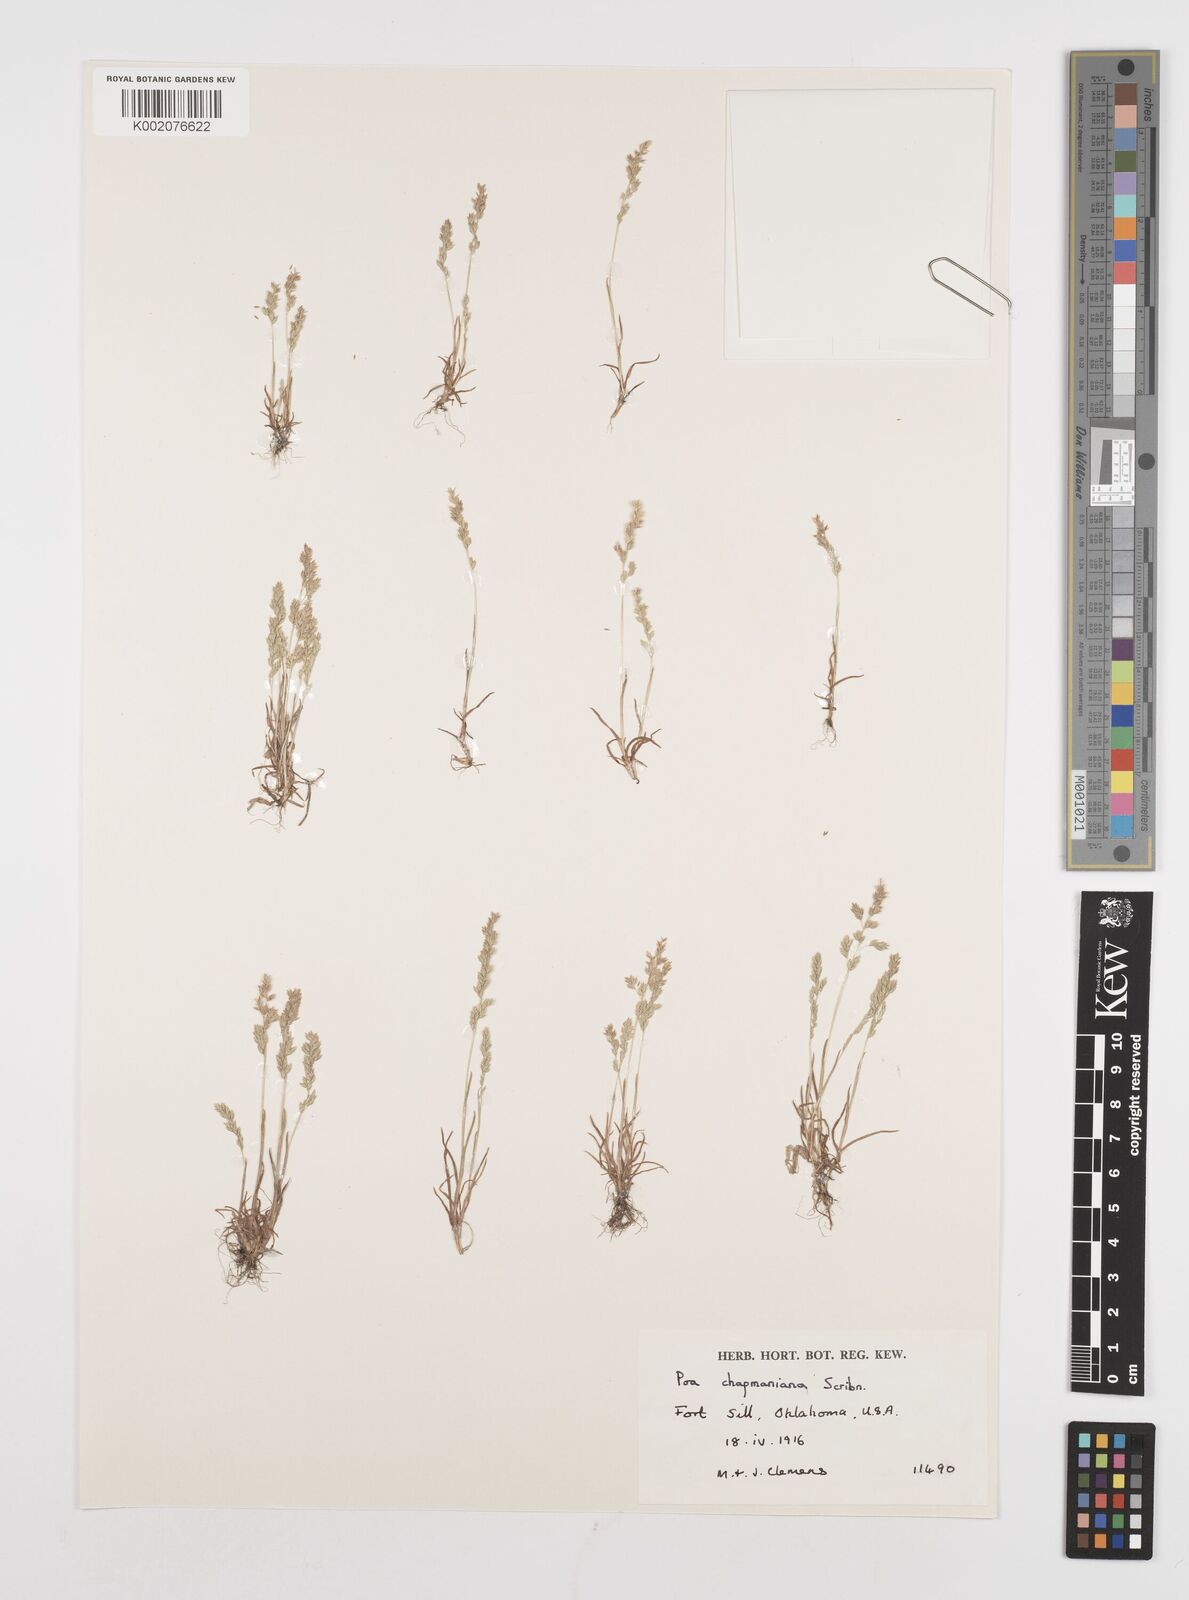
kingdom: Plantae
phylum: Tracheophyta
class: Liliopsida
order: Poales
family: Poaceae
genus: Poa
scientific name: Poa chapmaniana
